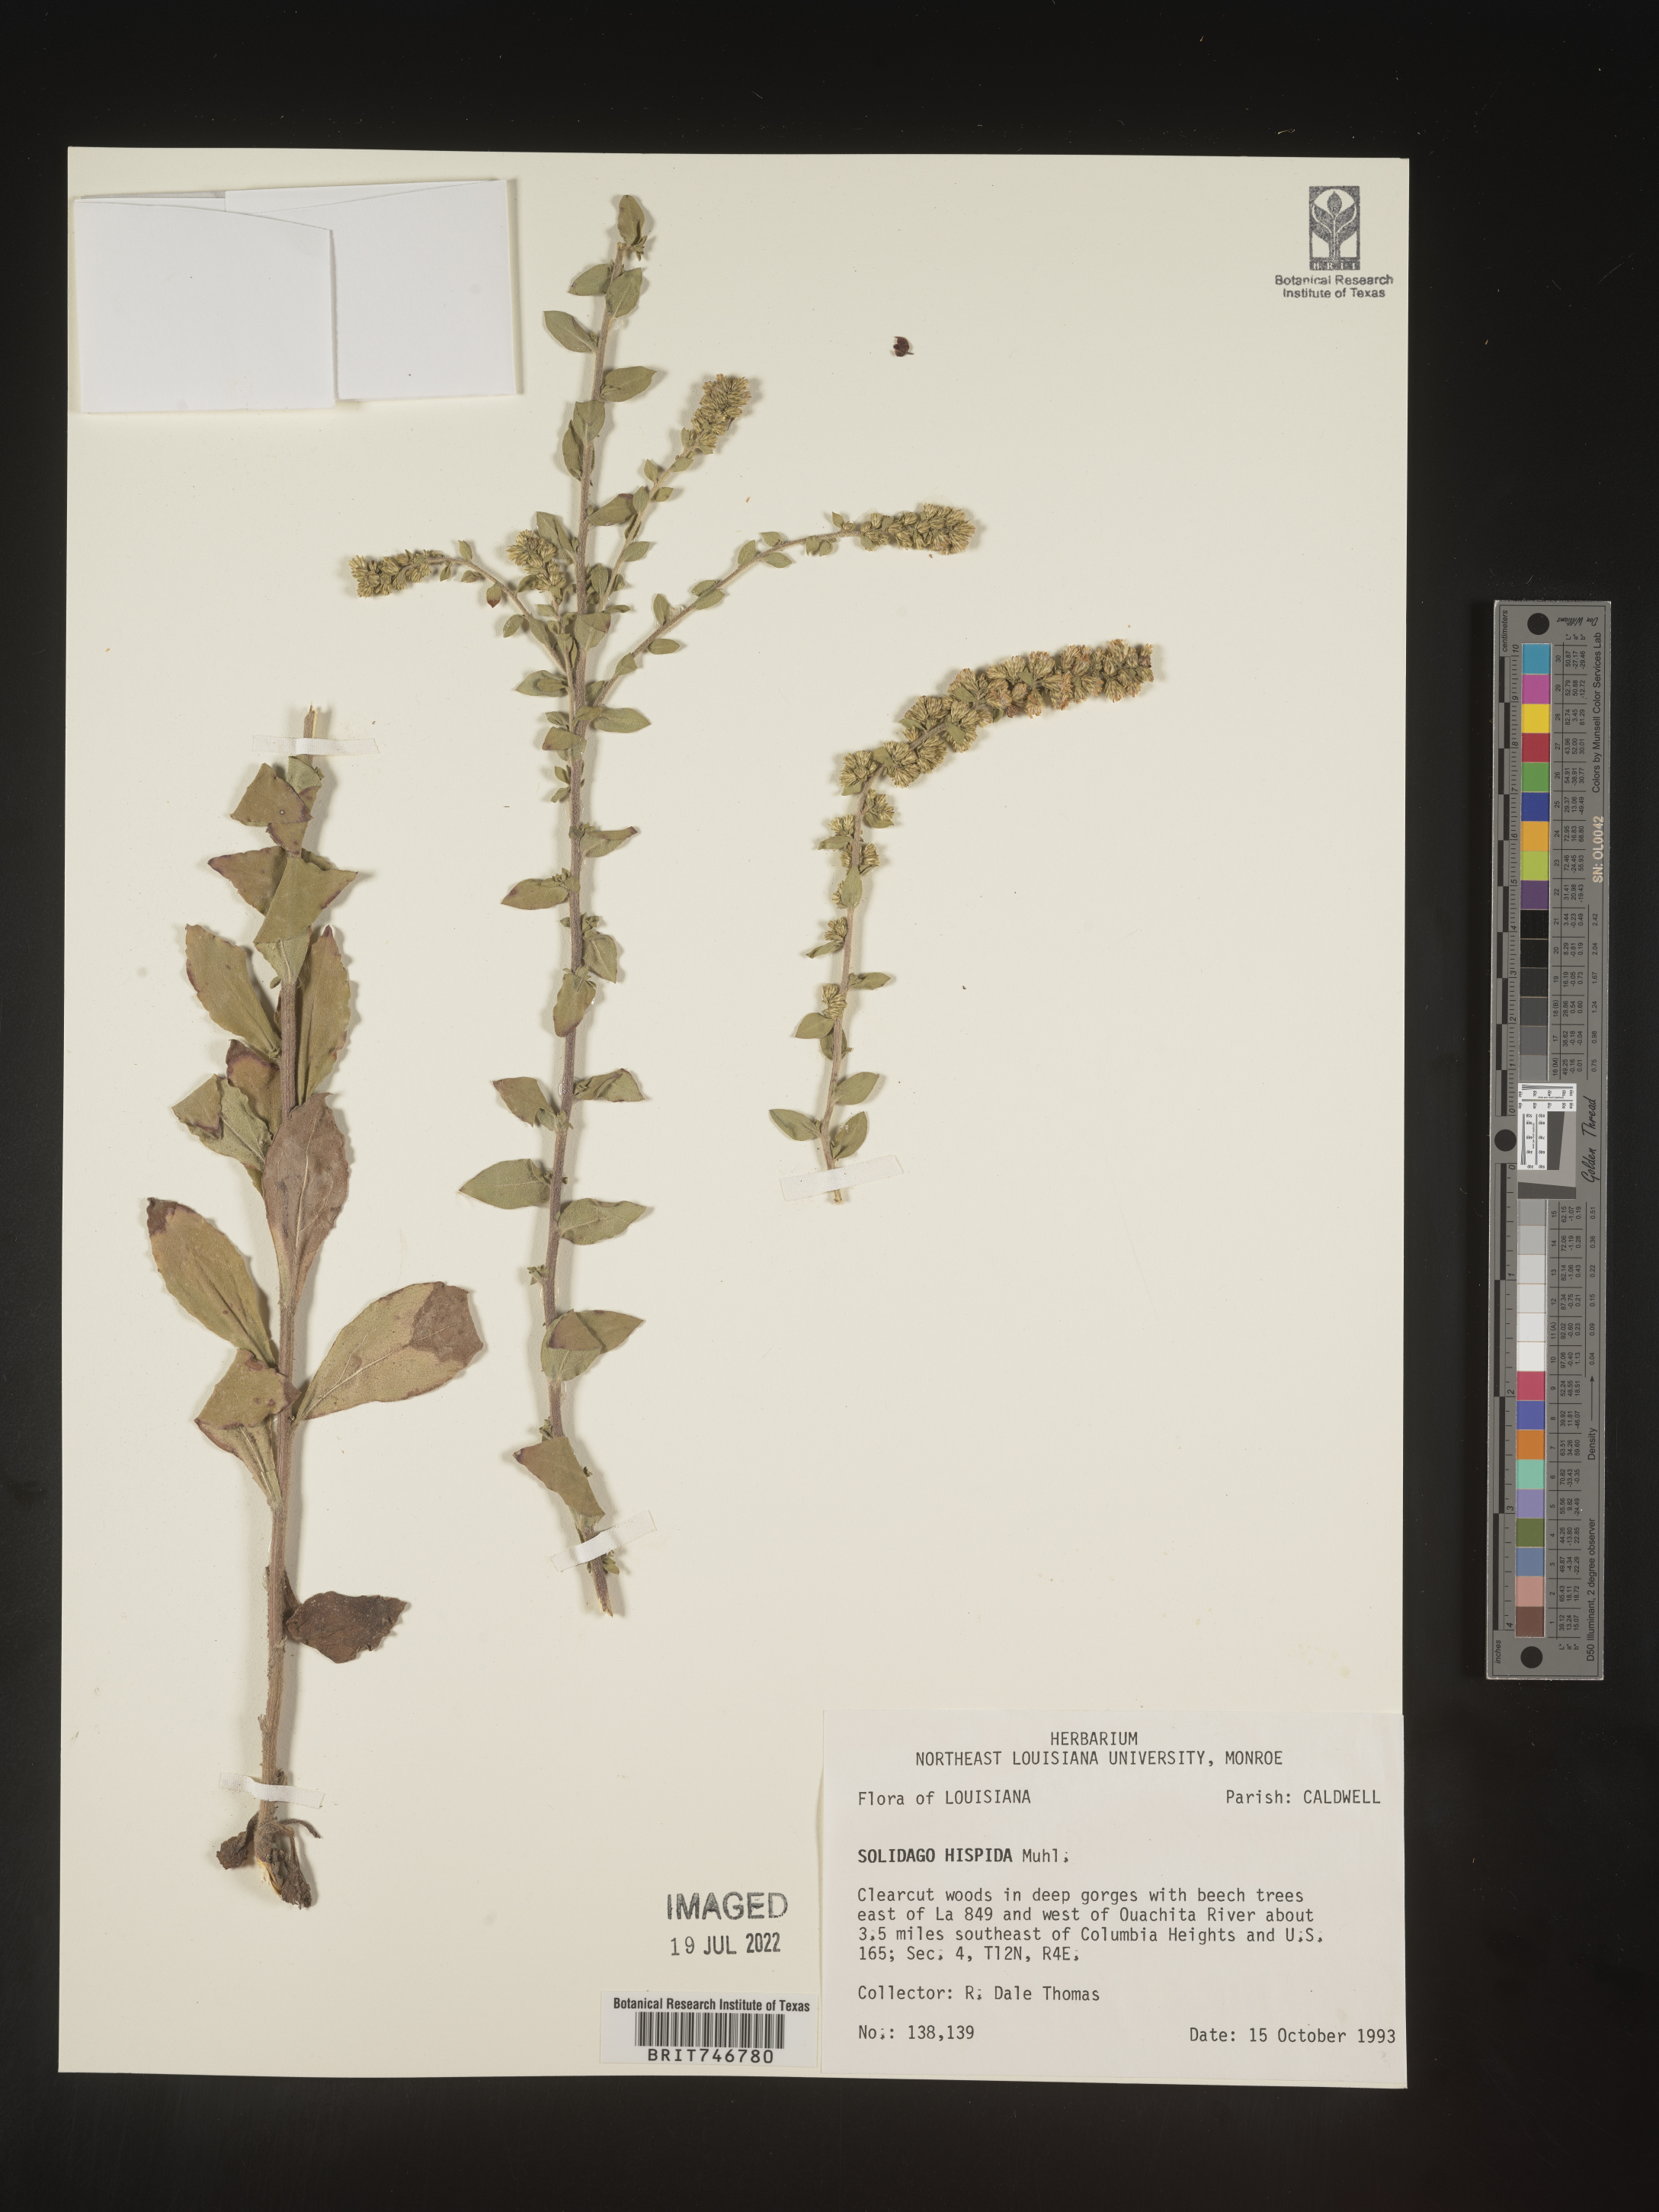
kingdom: Plantae
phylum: Tracheophyta
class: Magnoliopsida
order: Asterales
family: Asteraceae
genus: Solidago
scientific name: Solidago hispida
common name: Hairy goldenrod
